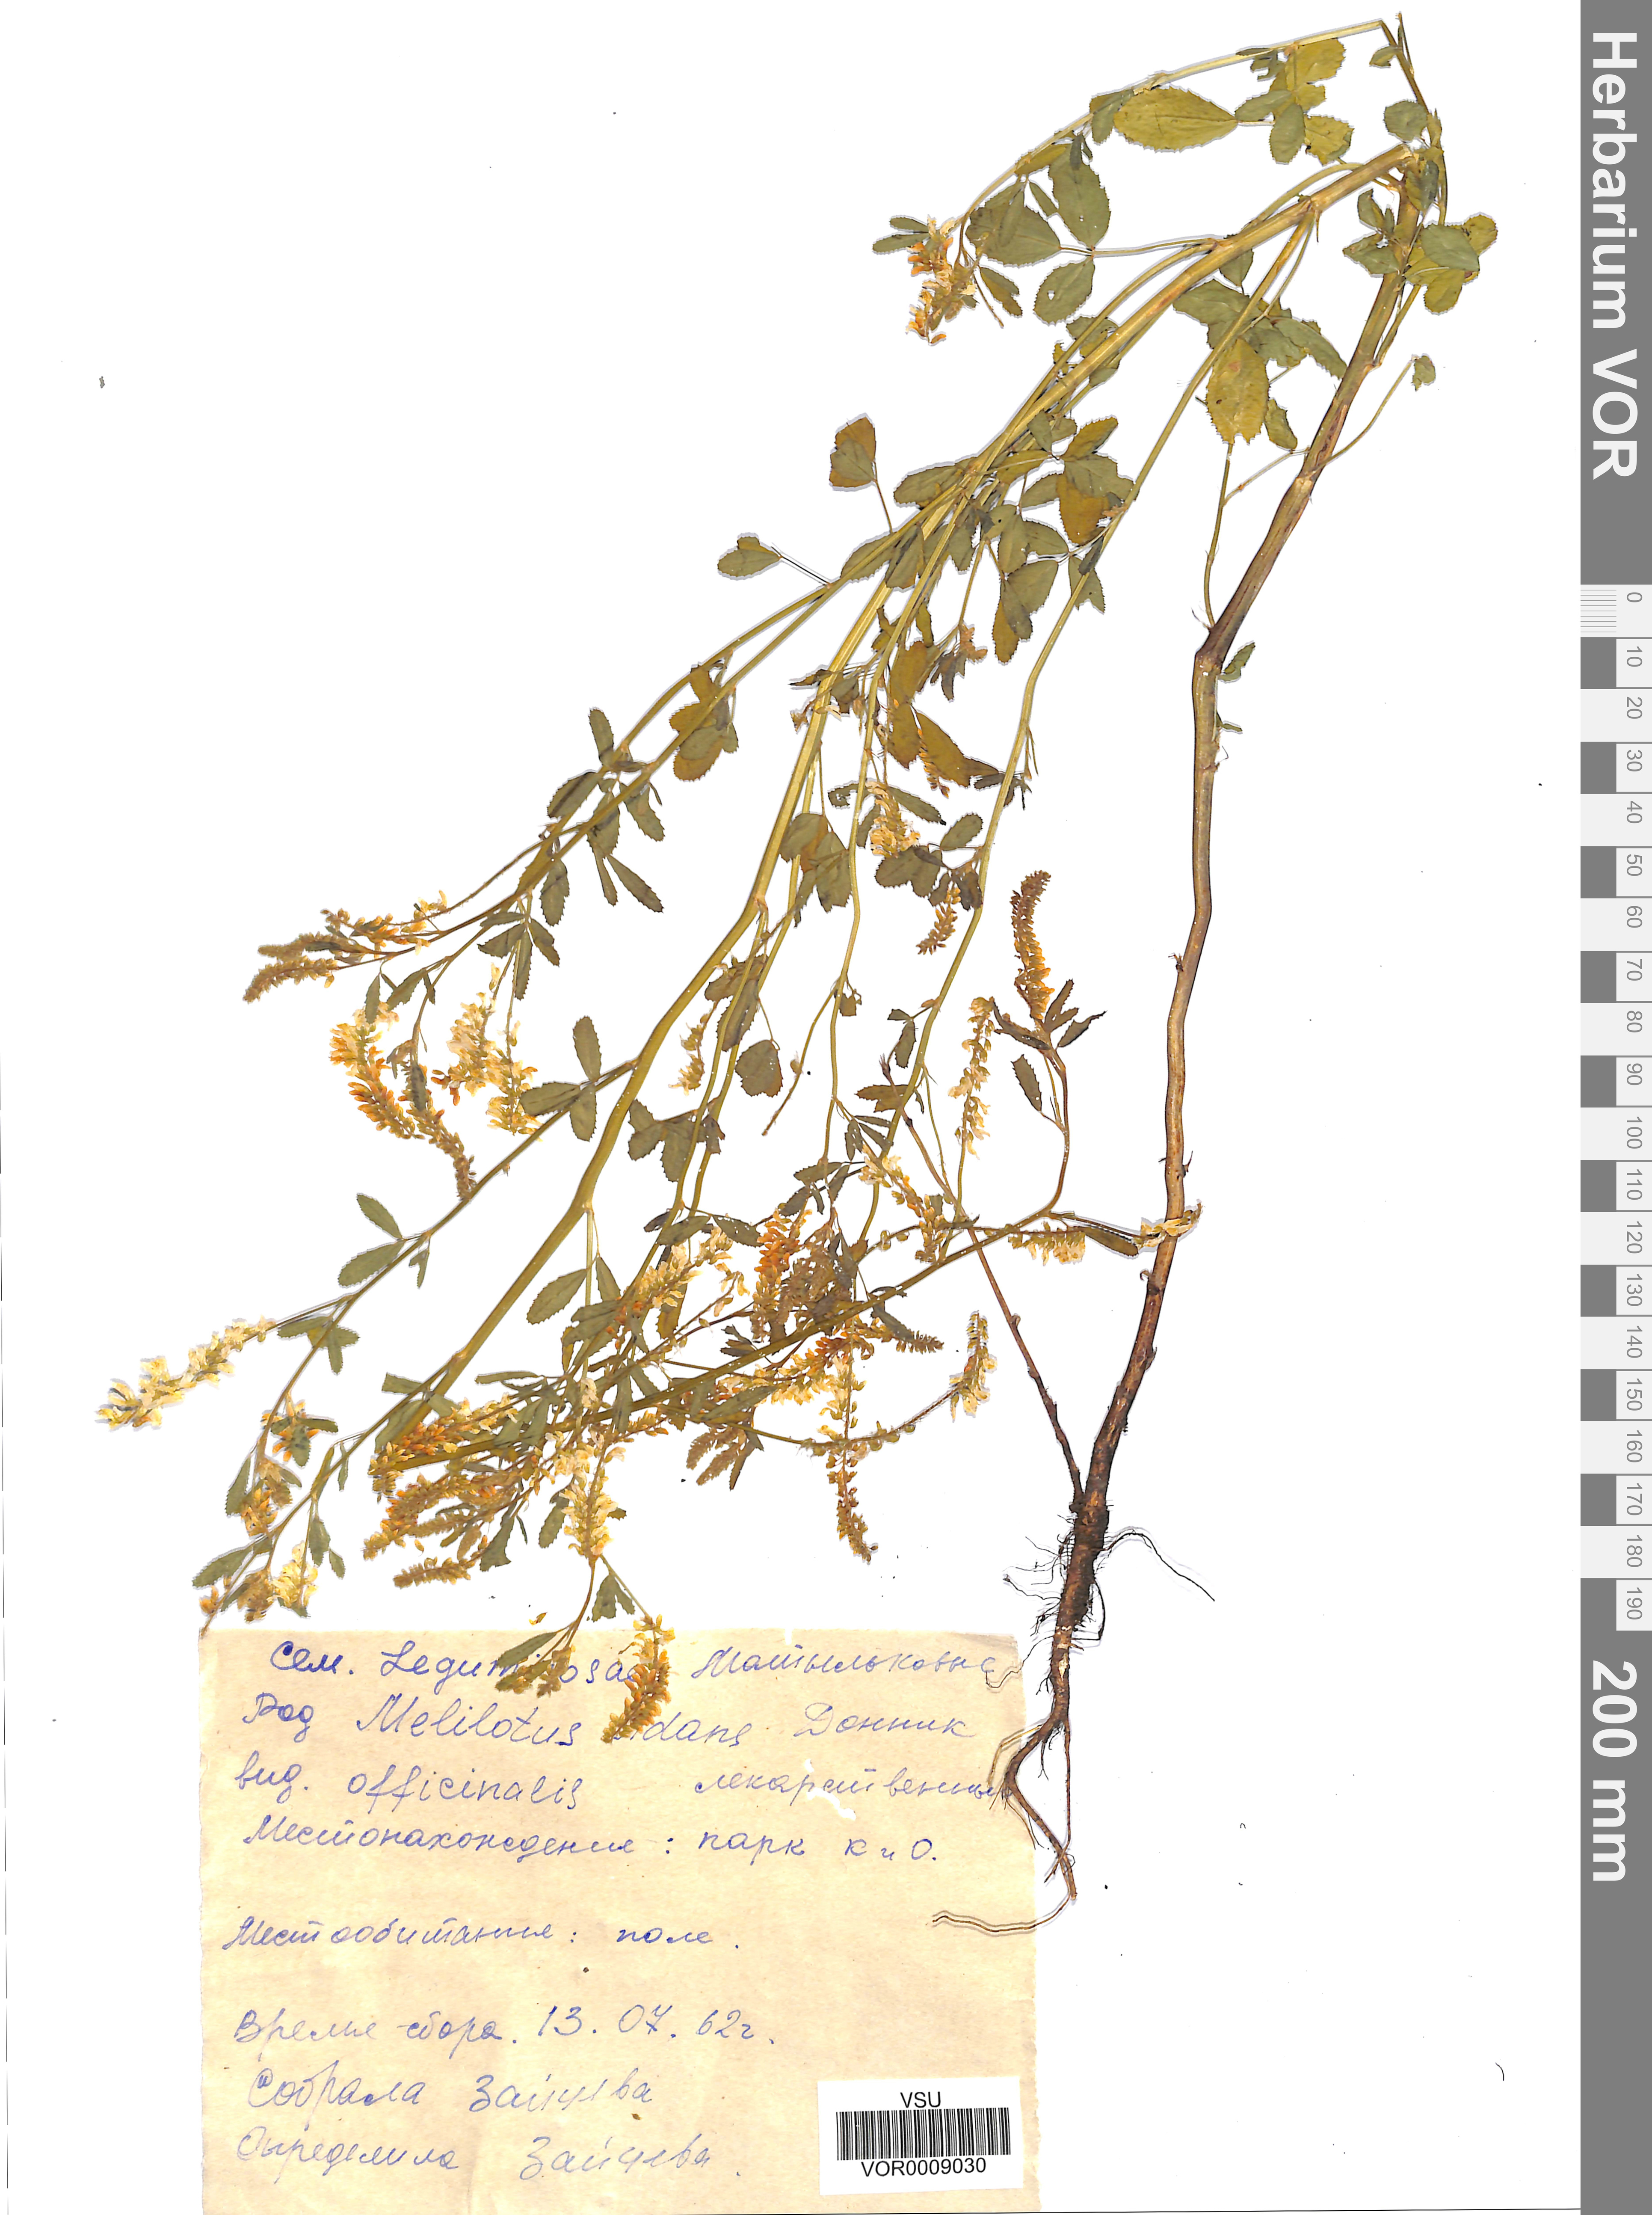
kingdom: Plantae
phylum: Tracheophyta
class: Magnoliopsida
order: Fabales
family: Fabaceae
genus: Melilotus
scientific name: Melilotus officinalis
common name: Sweetclover
